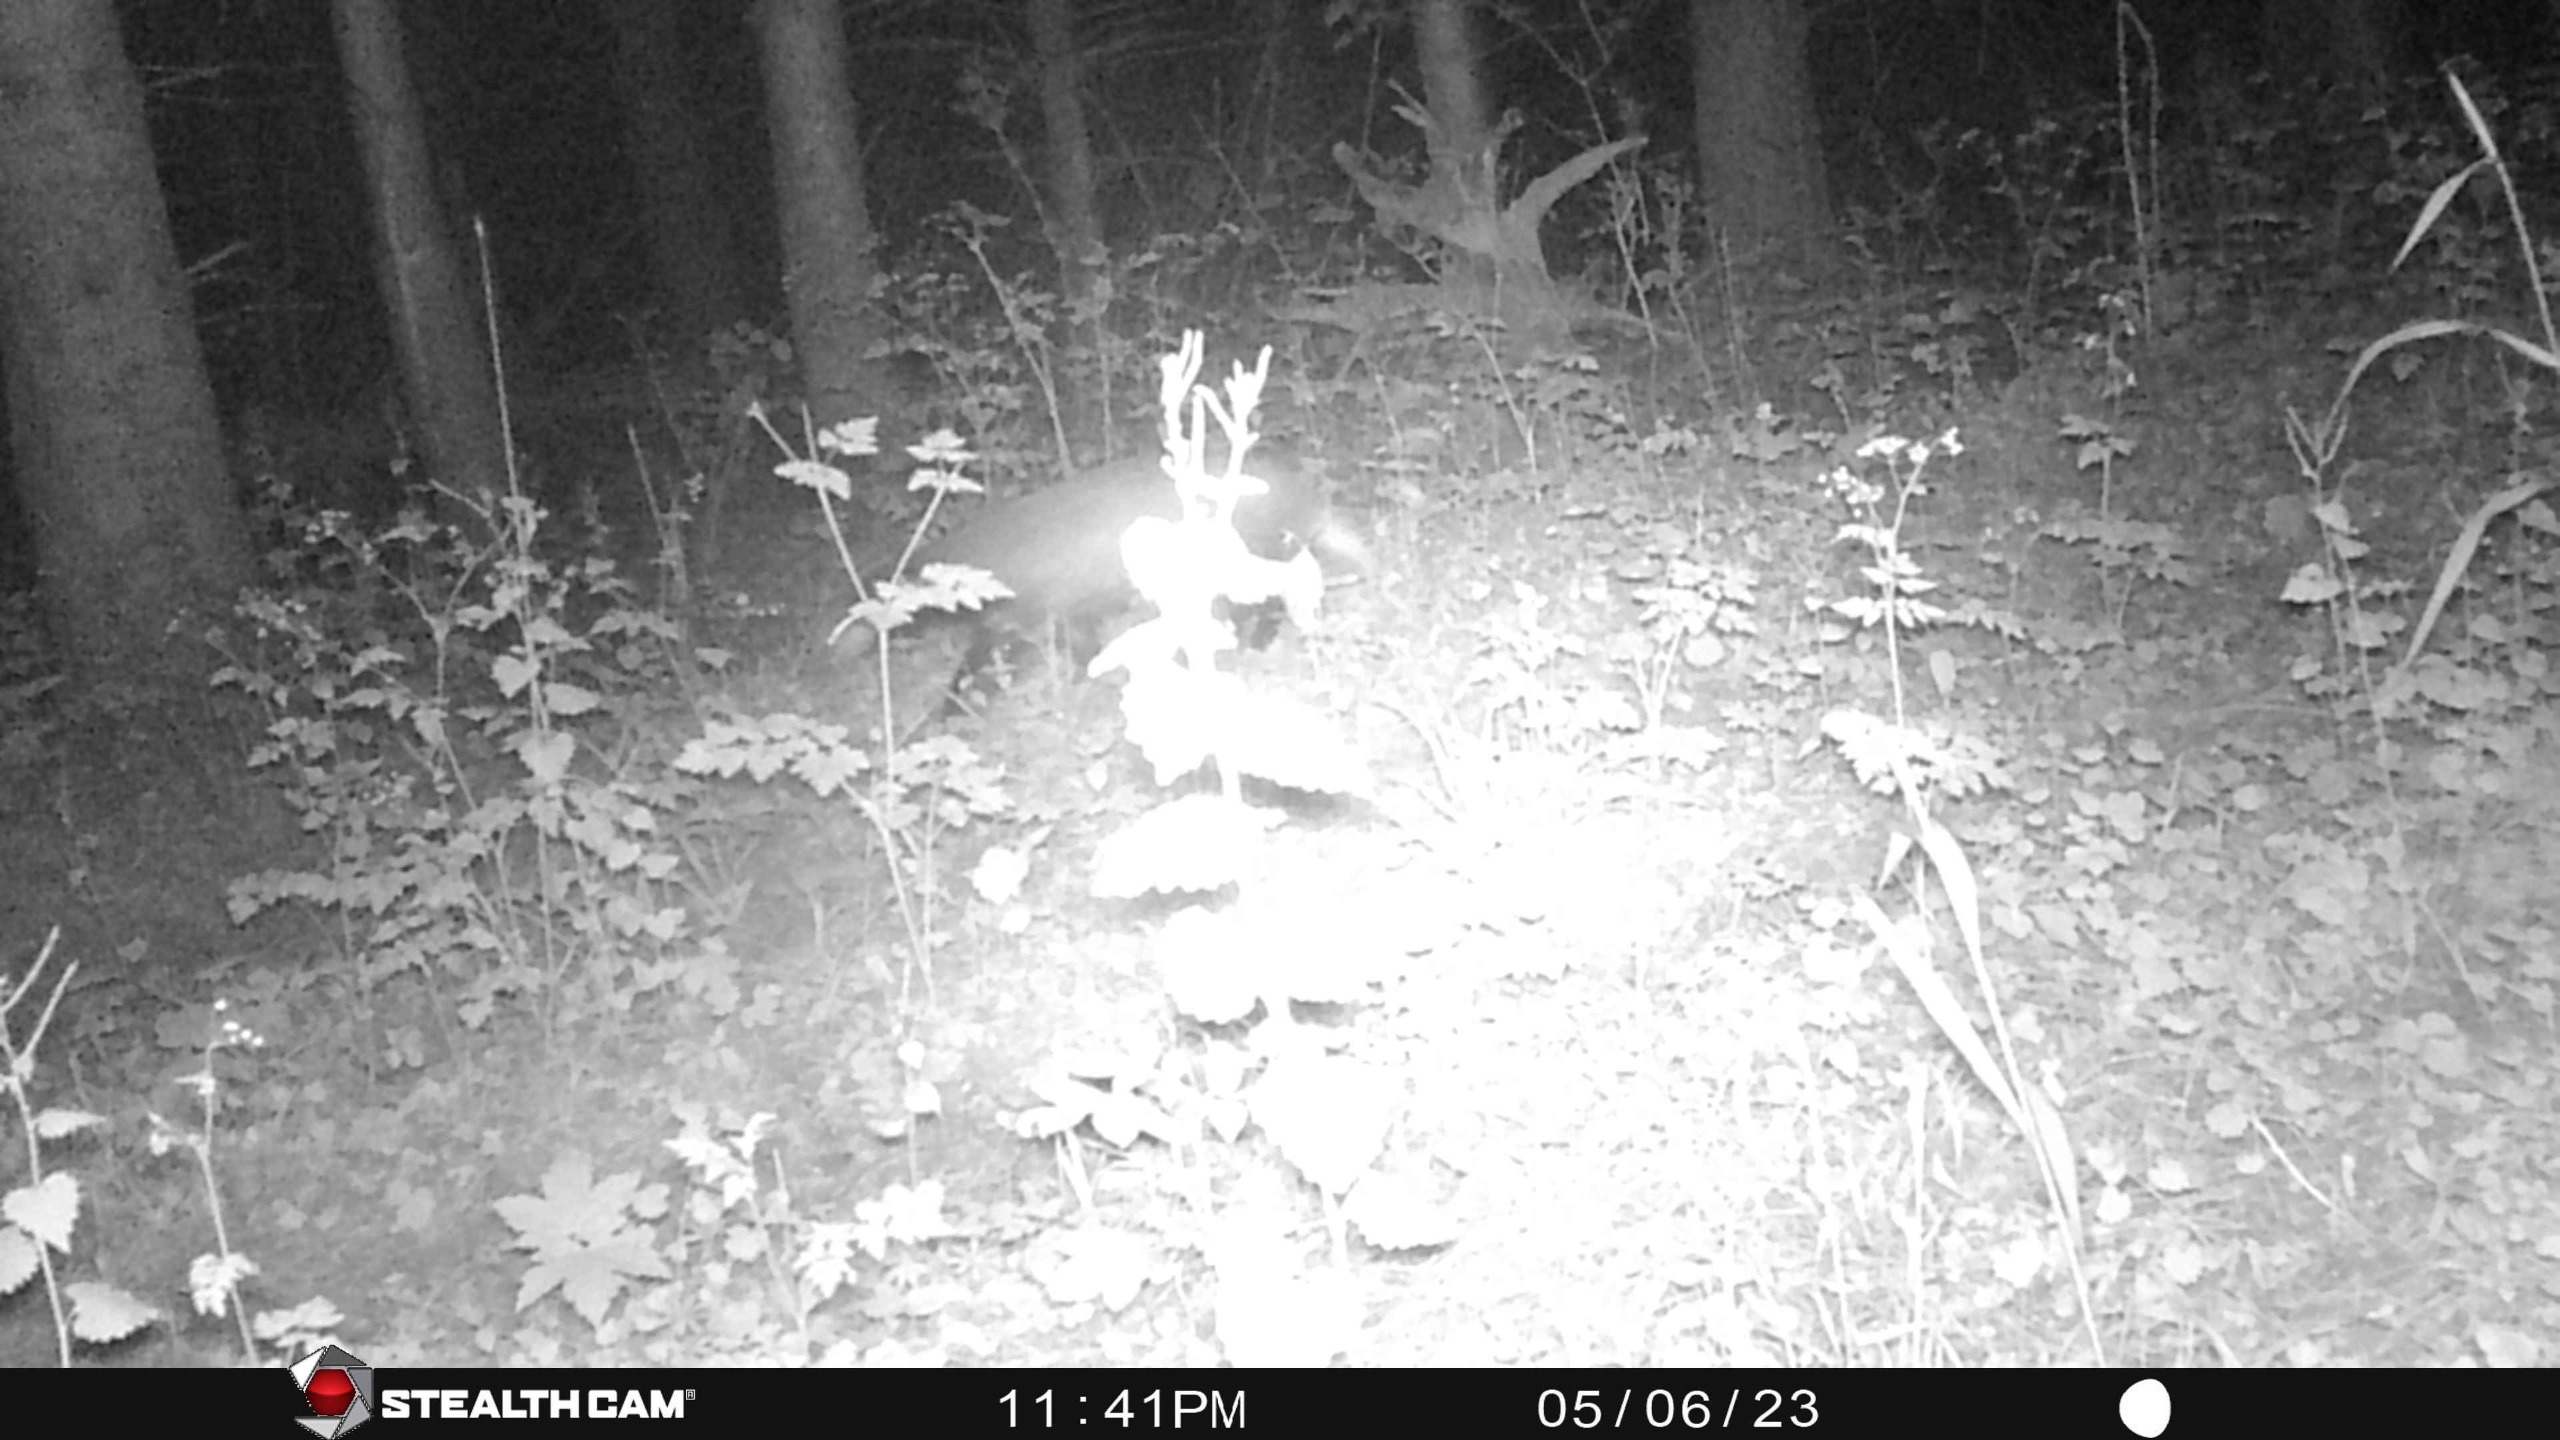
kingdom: Animalia
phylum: Chordata
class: Mammalia
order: Carnivora
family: Mustelidae
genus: Meles
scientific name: Meles meles
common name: Grævling
